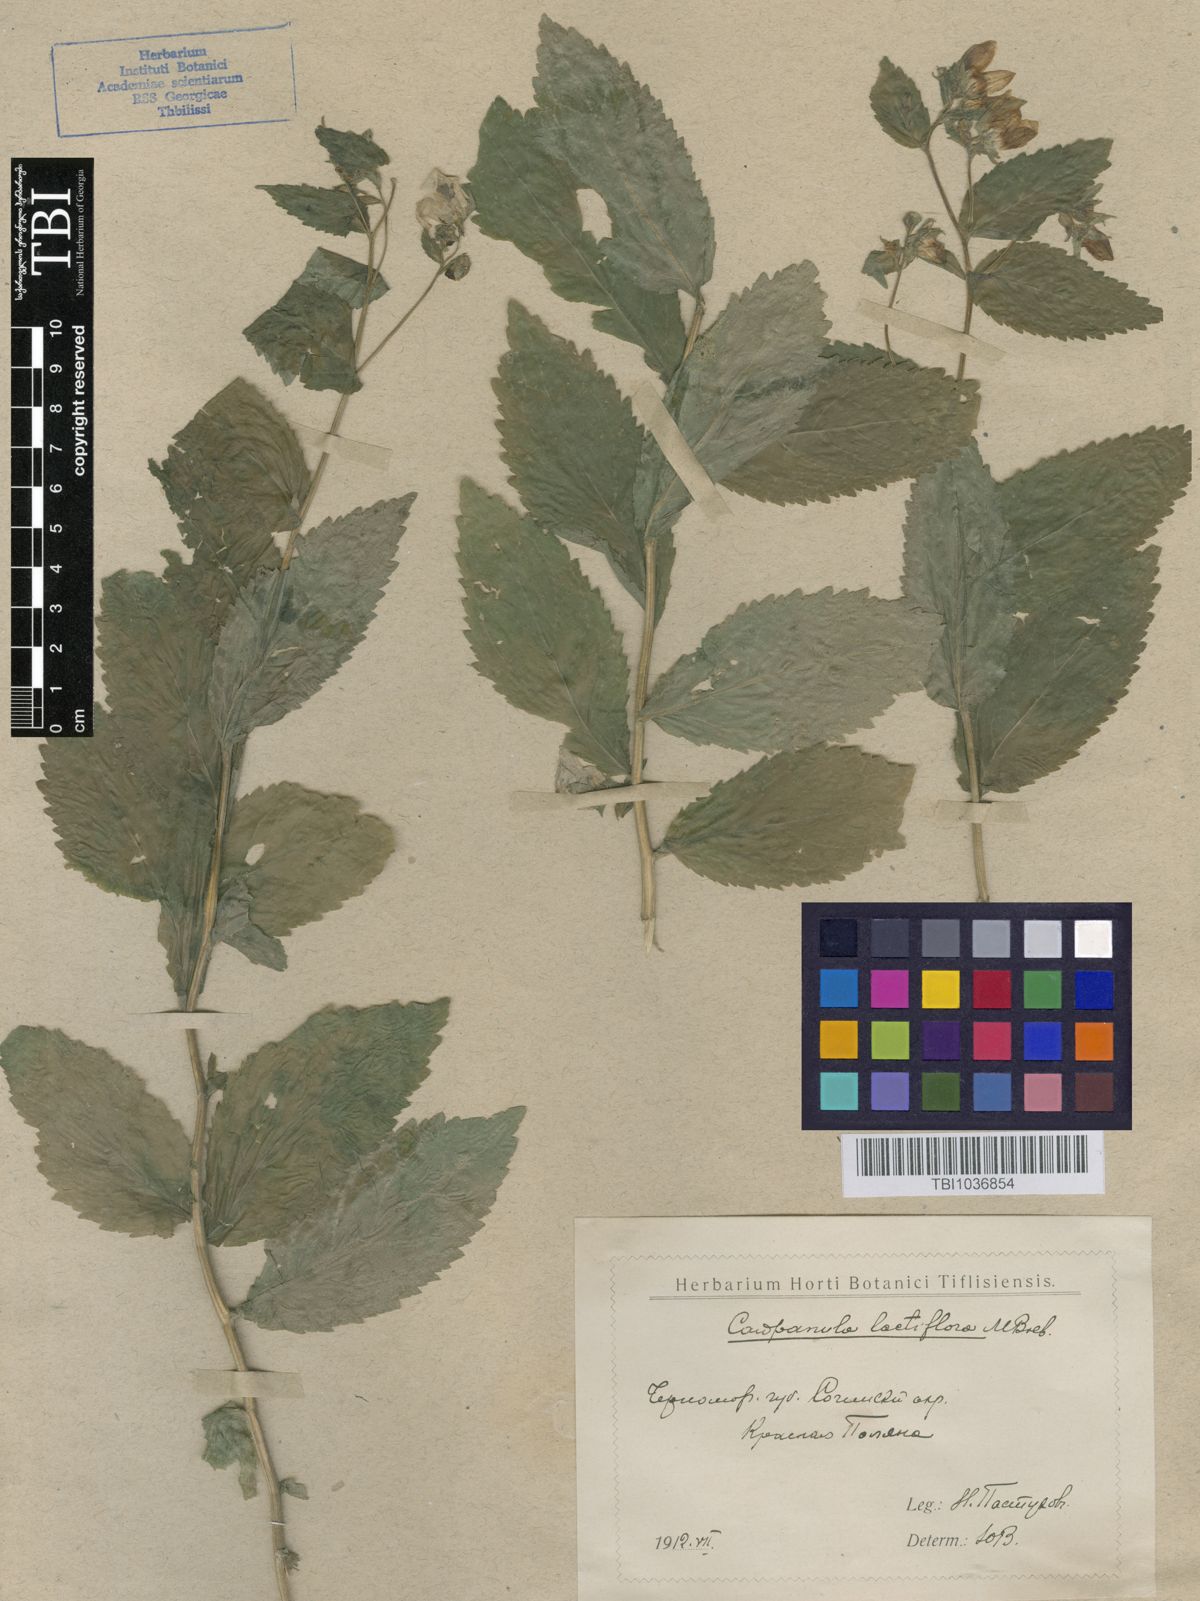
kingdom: Plantae
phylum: Tracheophyta
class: Magnoliopsida
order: Asterales
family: Campanulaceae
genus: Campanula
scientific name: Campanula lactiflora
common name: Milky bellflower
